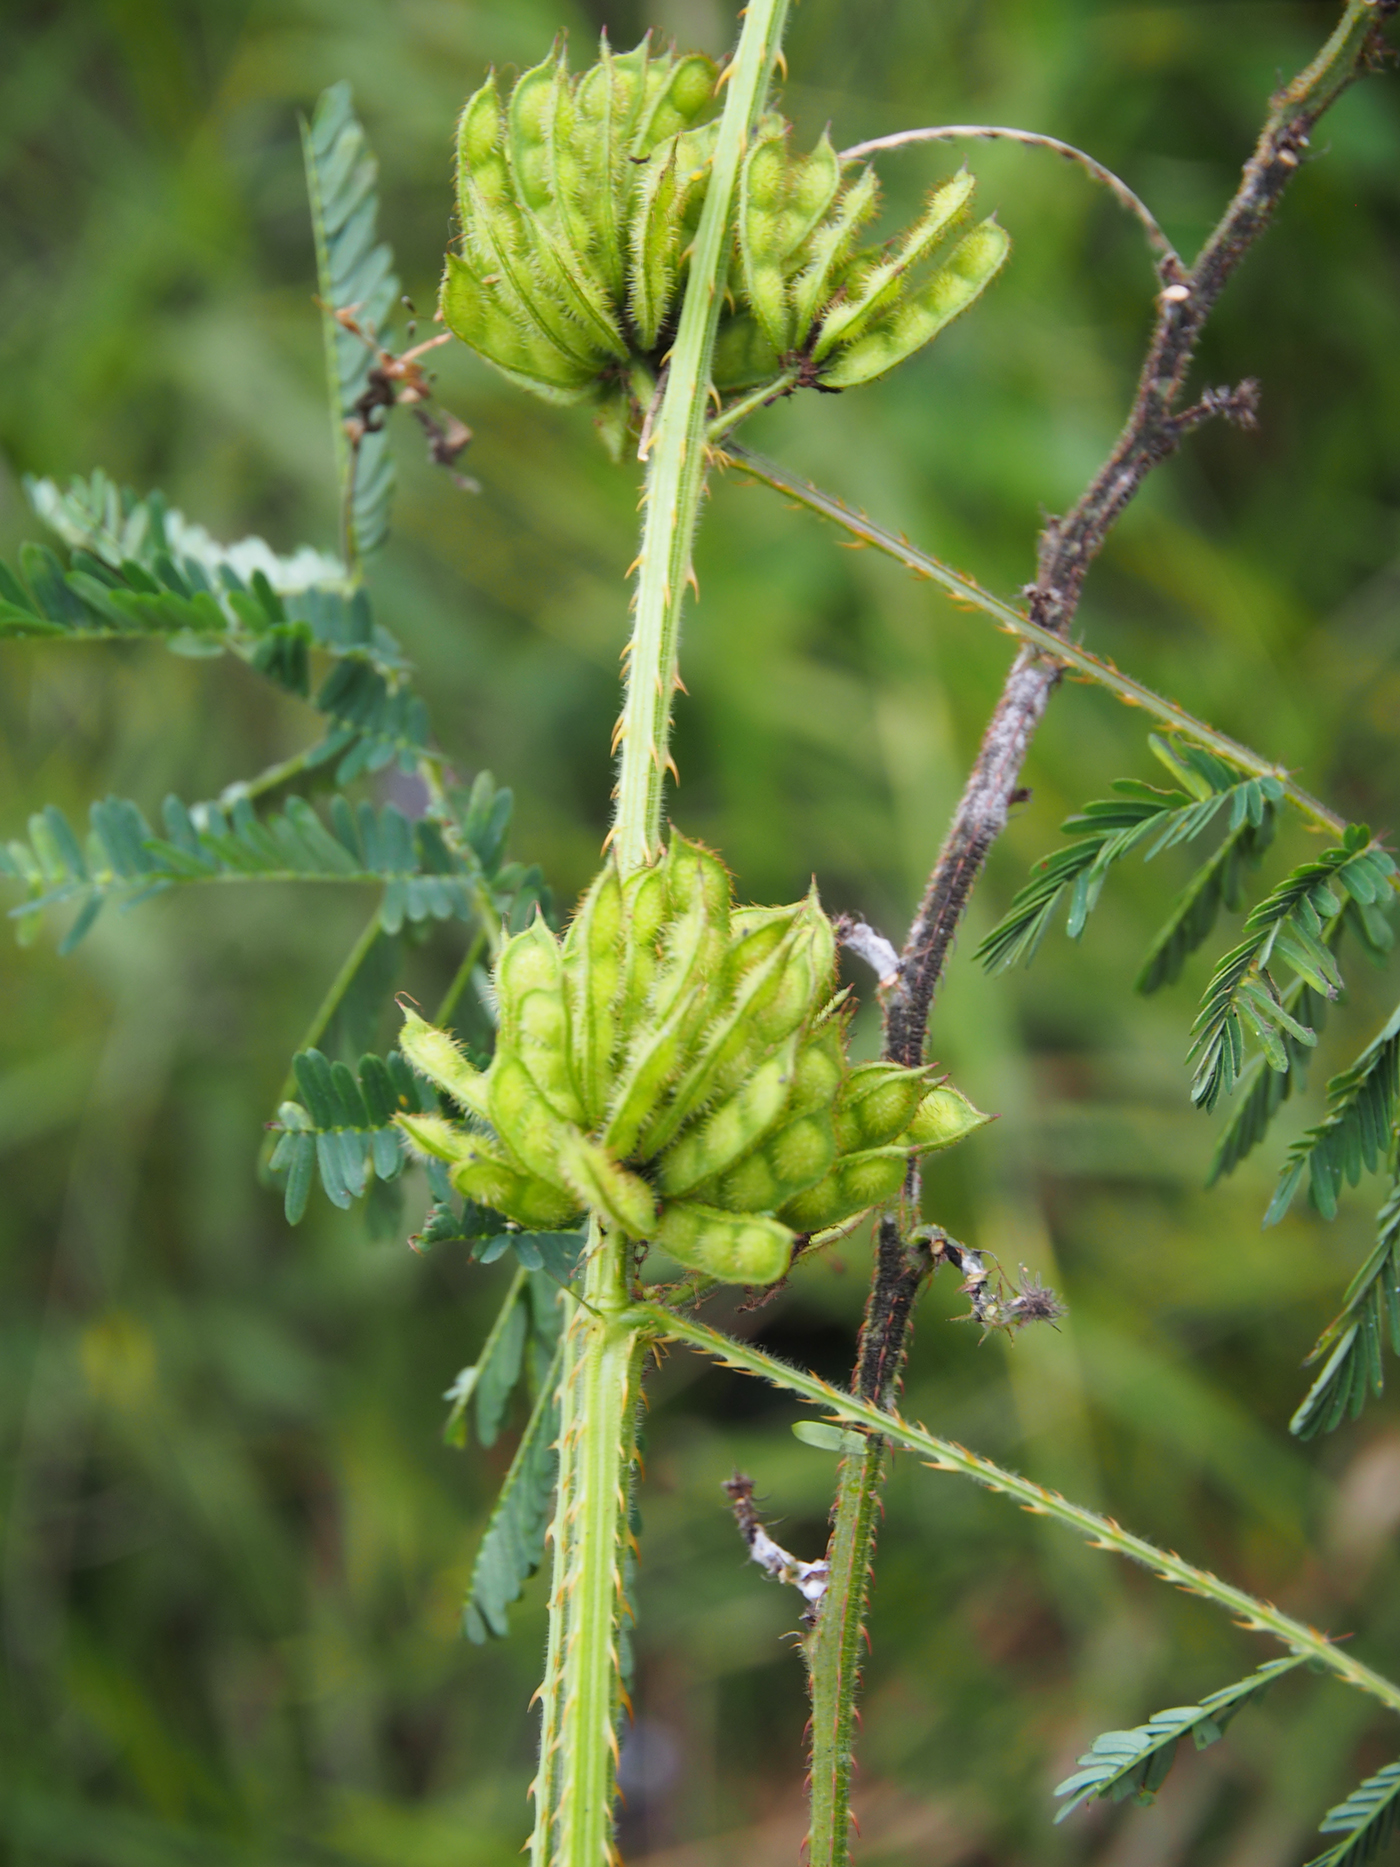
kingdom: Plantae
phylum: Tracheophyta
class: Magnoliopsida
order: Fabales
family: Fabaceae
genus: Mimosa
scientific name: Mimosa diplotricha
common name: Giant sensitive-plant
